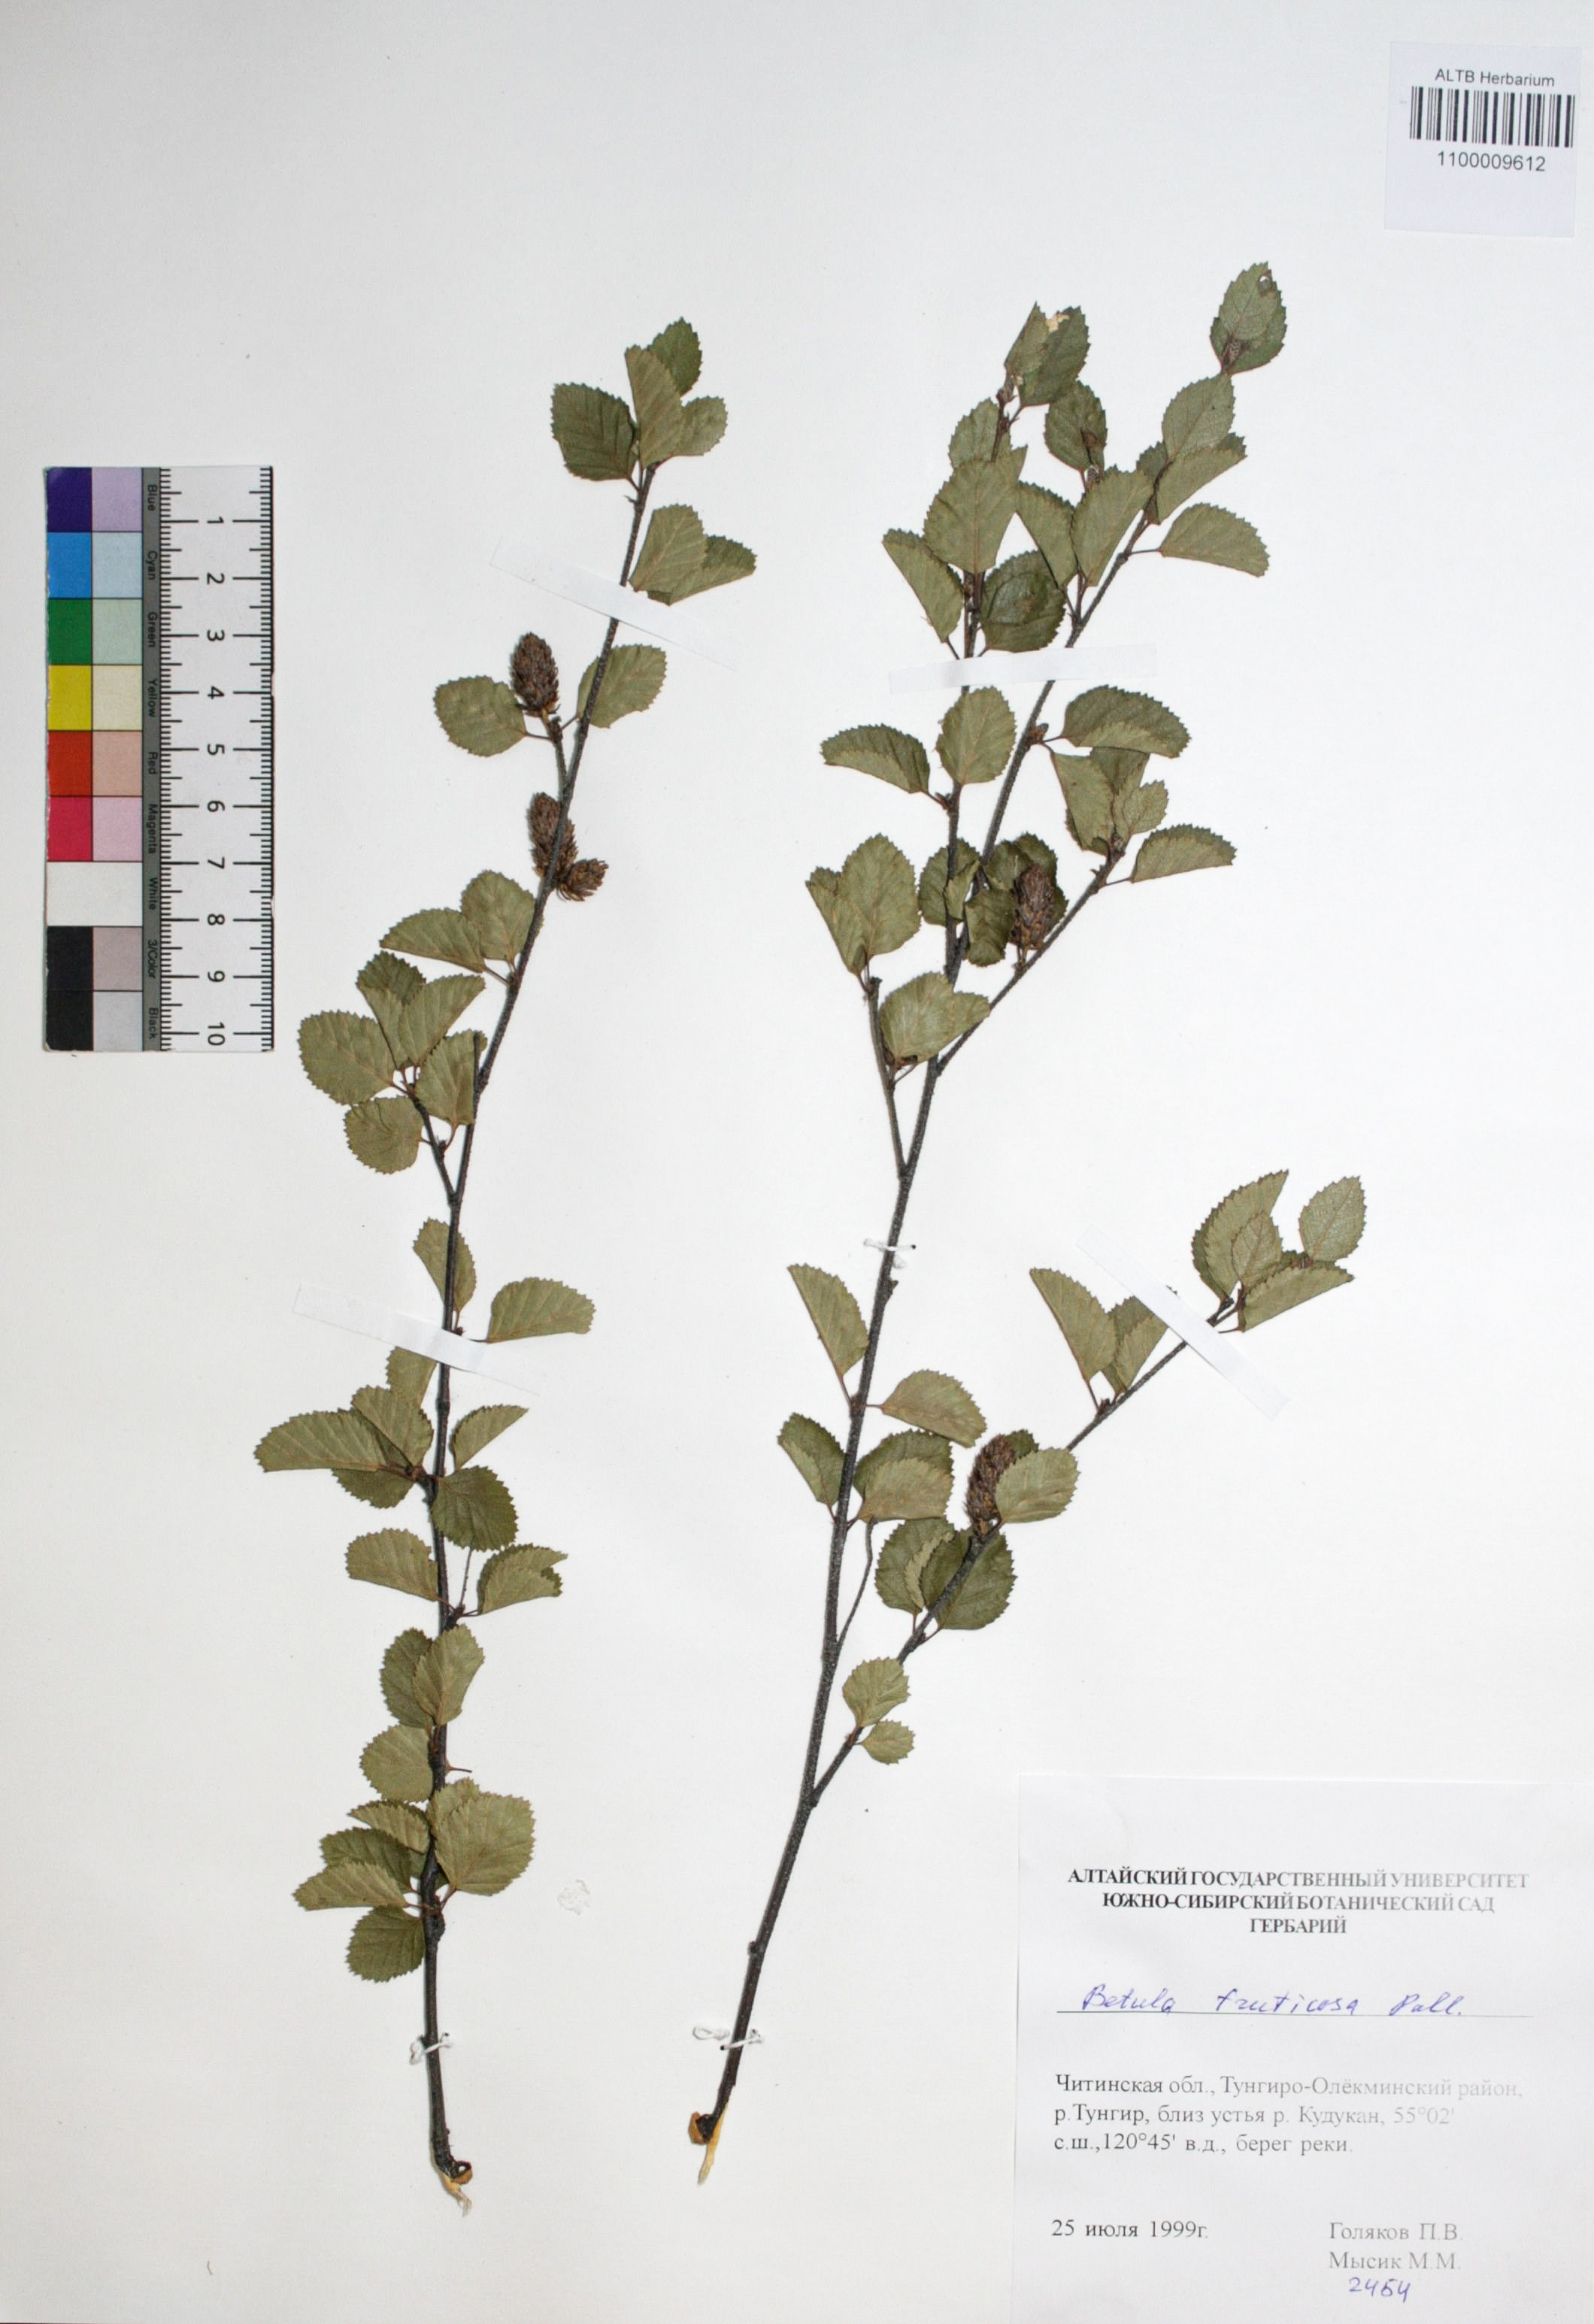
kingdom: Plantae
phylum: Tracheophyta
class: Magnoliopsida
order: Fagales
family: Betulaceae
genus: Betula
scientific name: Betula fruticosa
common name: Japanese bog birch
